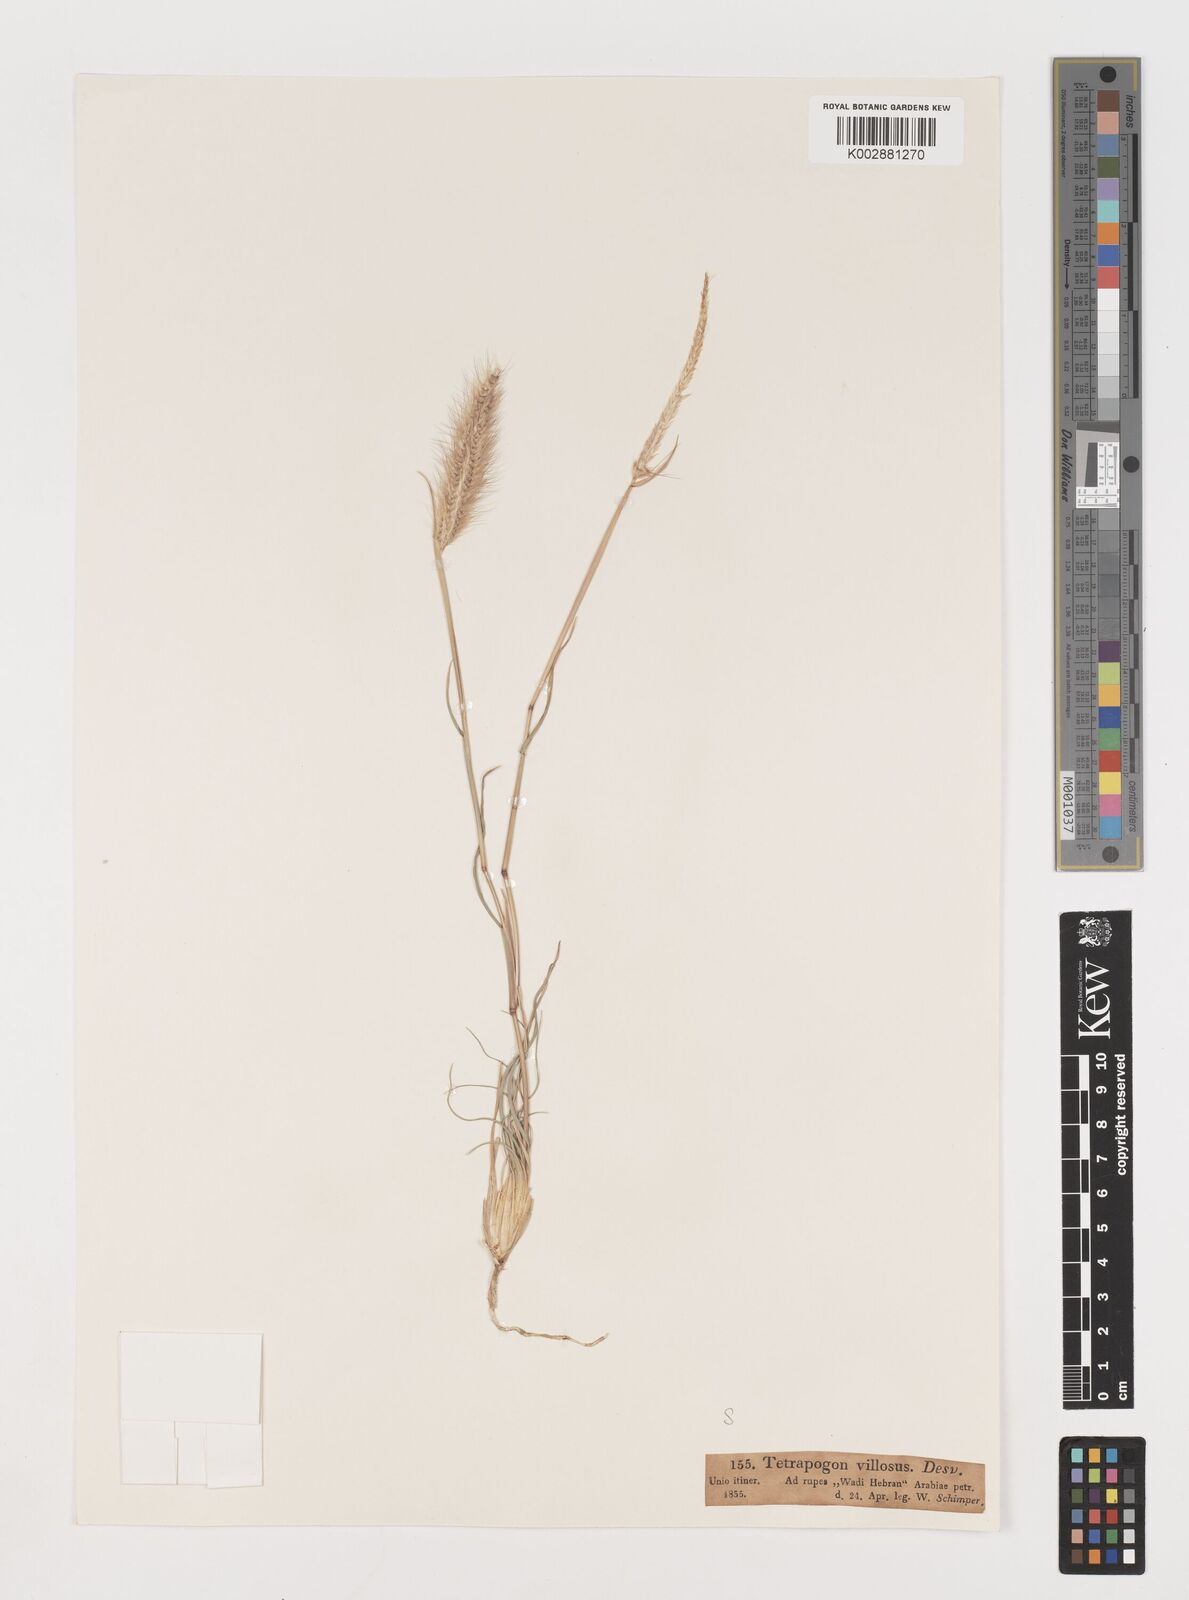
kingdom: Plantae
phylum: Tracheophyta
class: Liliopsida
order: Poales
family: Poaceae
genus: Tetrapogon
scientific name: Tetrapogon villosus
